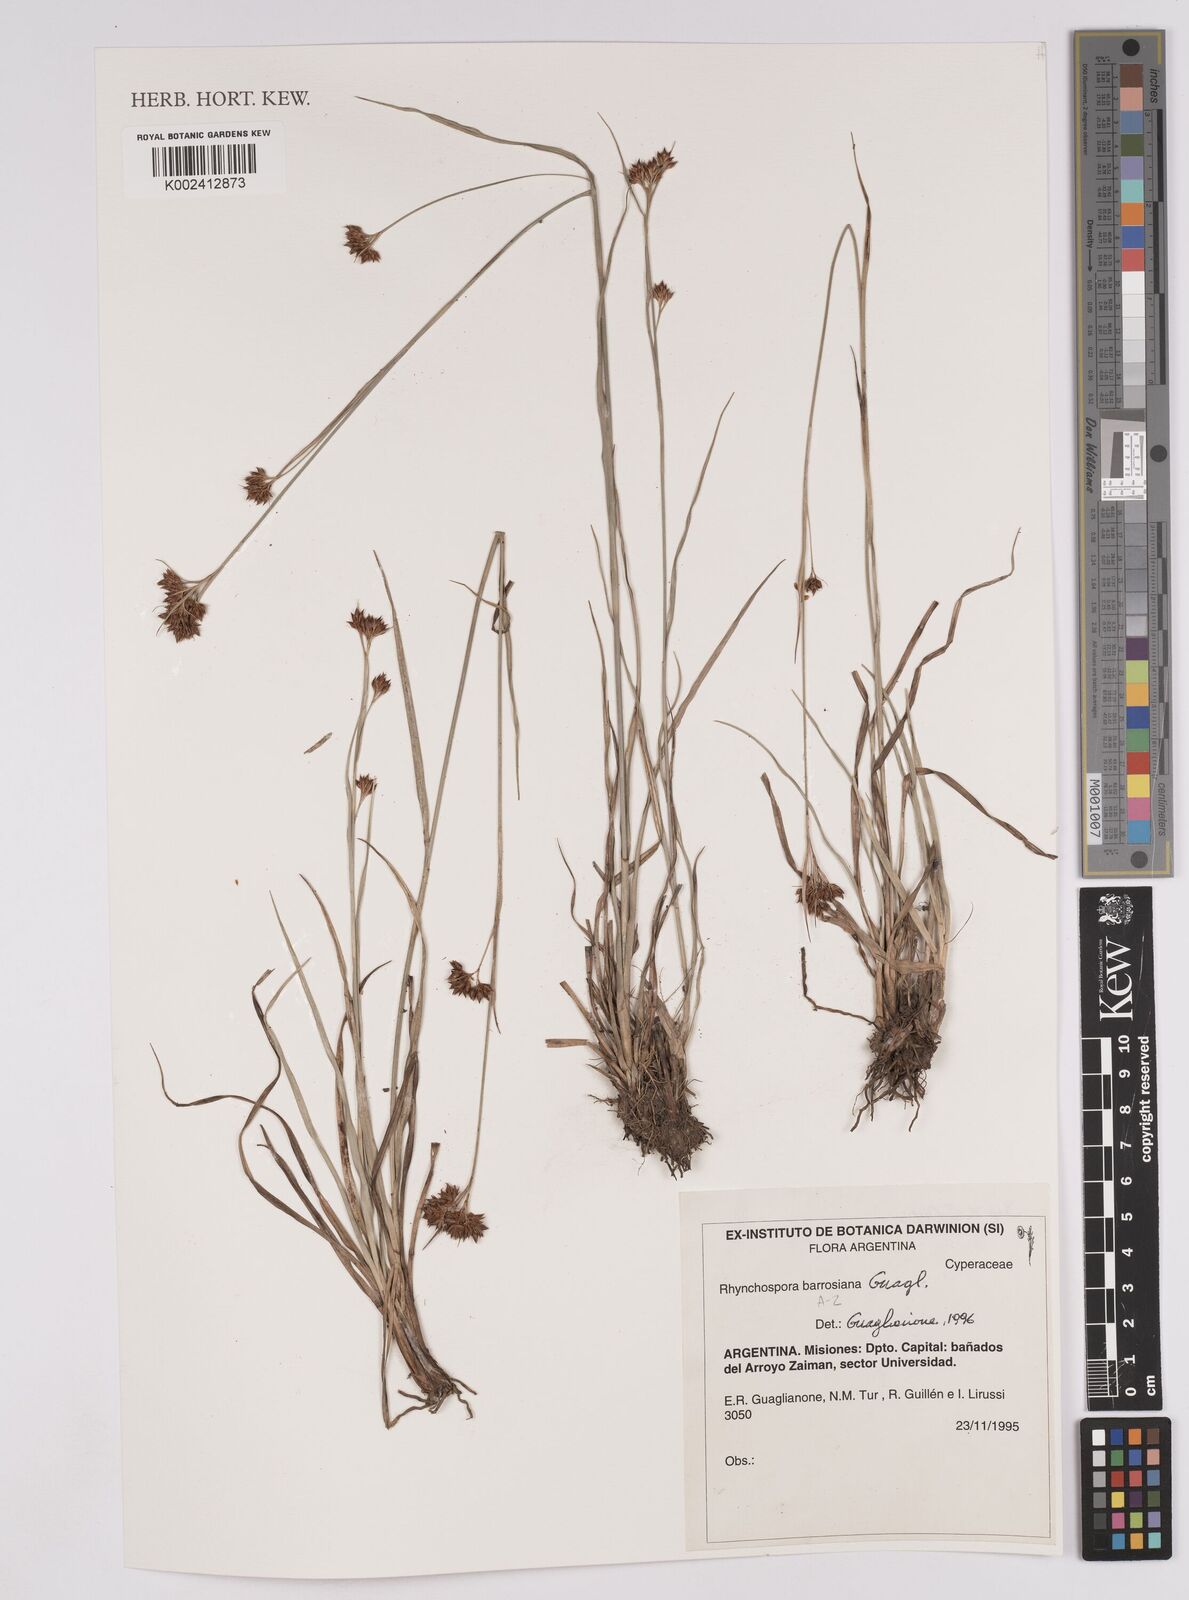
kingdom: Plantae
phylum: Tracheophyta
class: Liliopsida
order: Poales
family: Cyperaceae
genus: Rhynchospora
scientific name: Rhynchospora barrosiana
